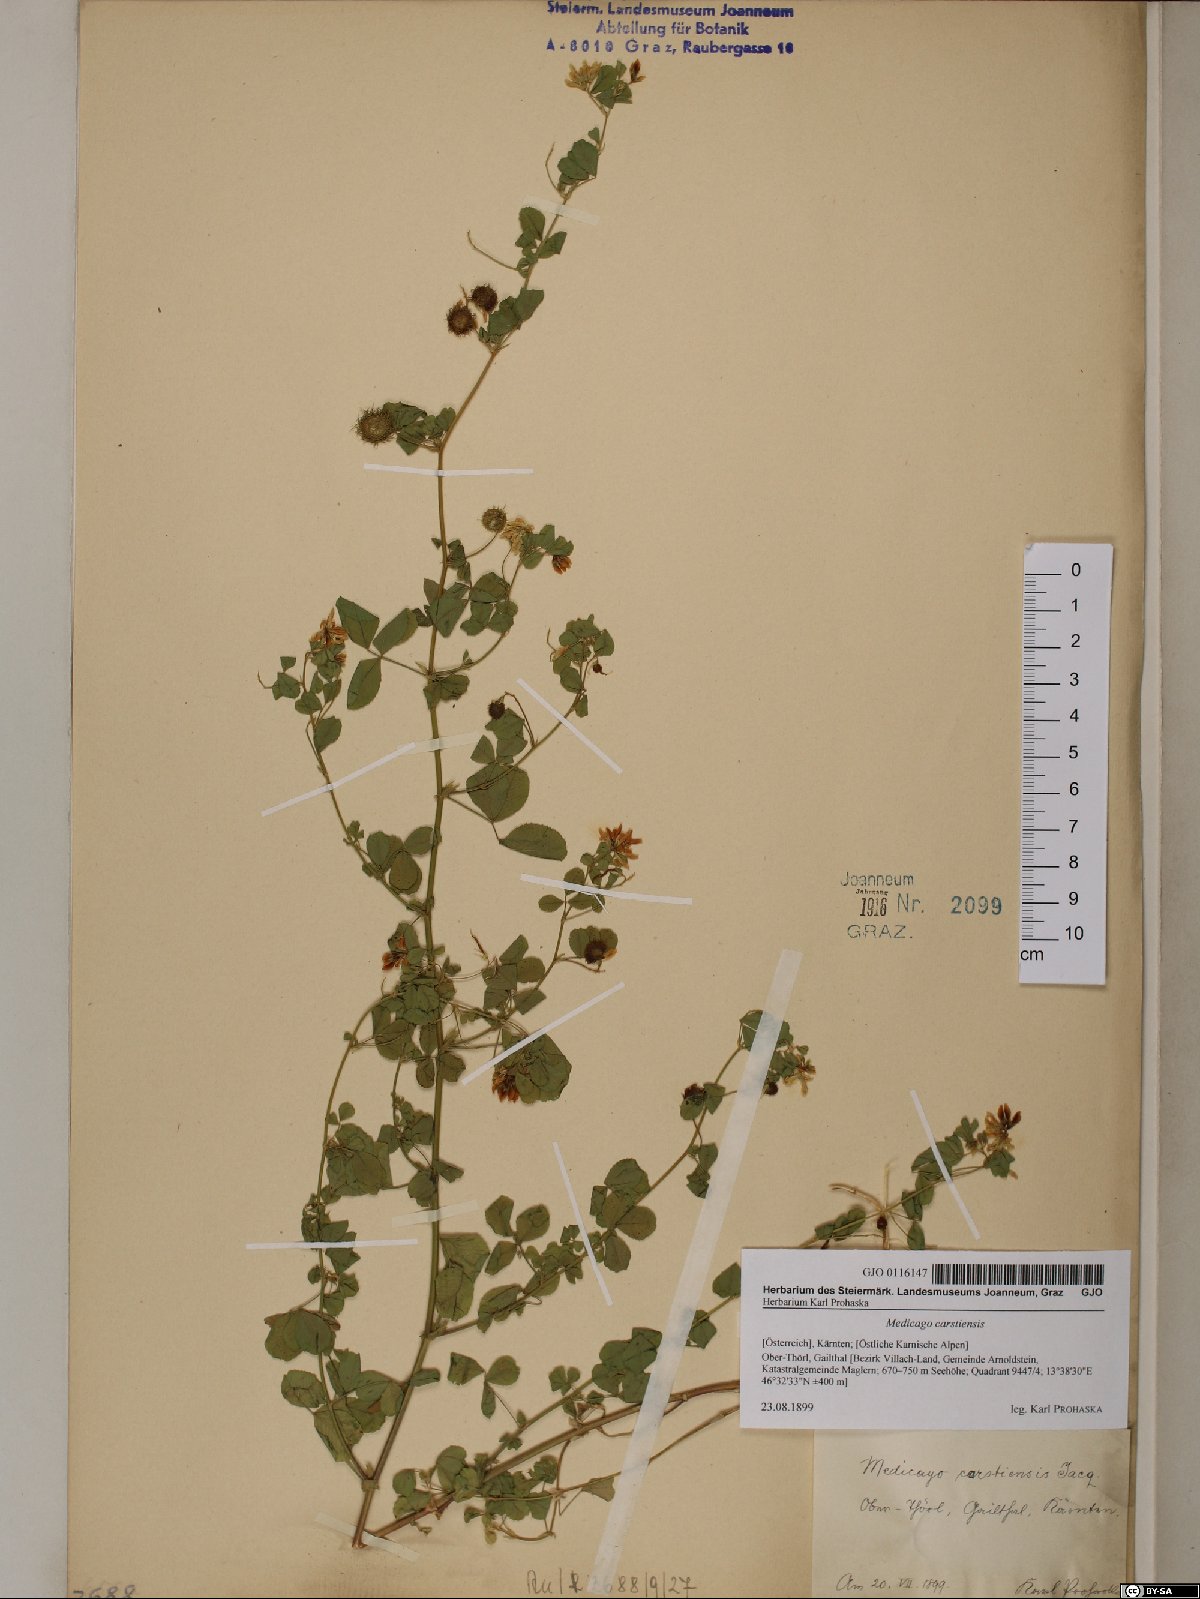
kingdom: Plantae
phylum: Tracheophyta
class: Magnoliopsida
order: Fabales
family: Fabaceae
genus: Medicago
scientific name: Medicago carstiensis
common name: Creeping-rooted medic
